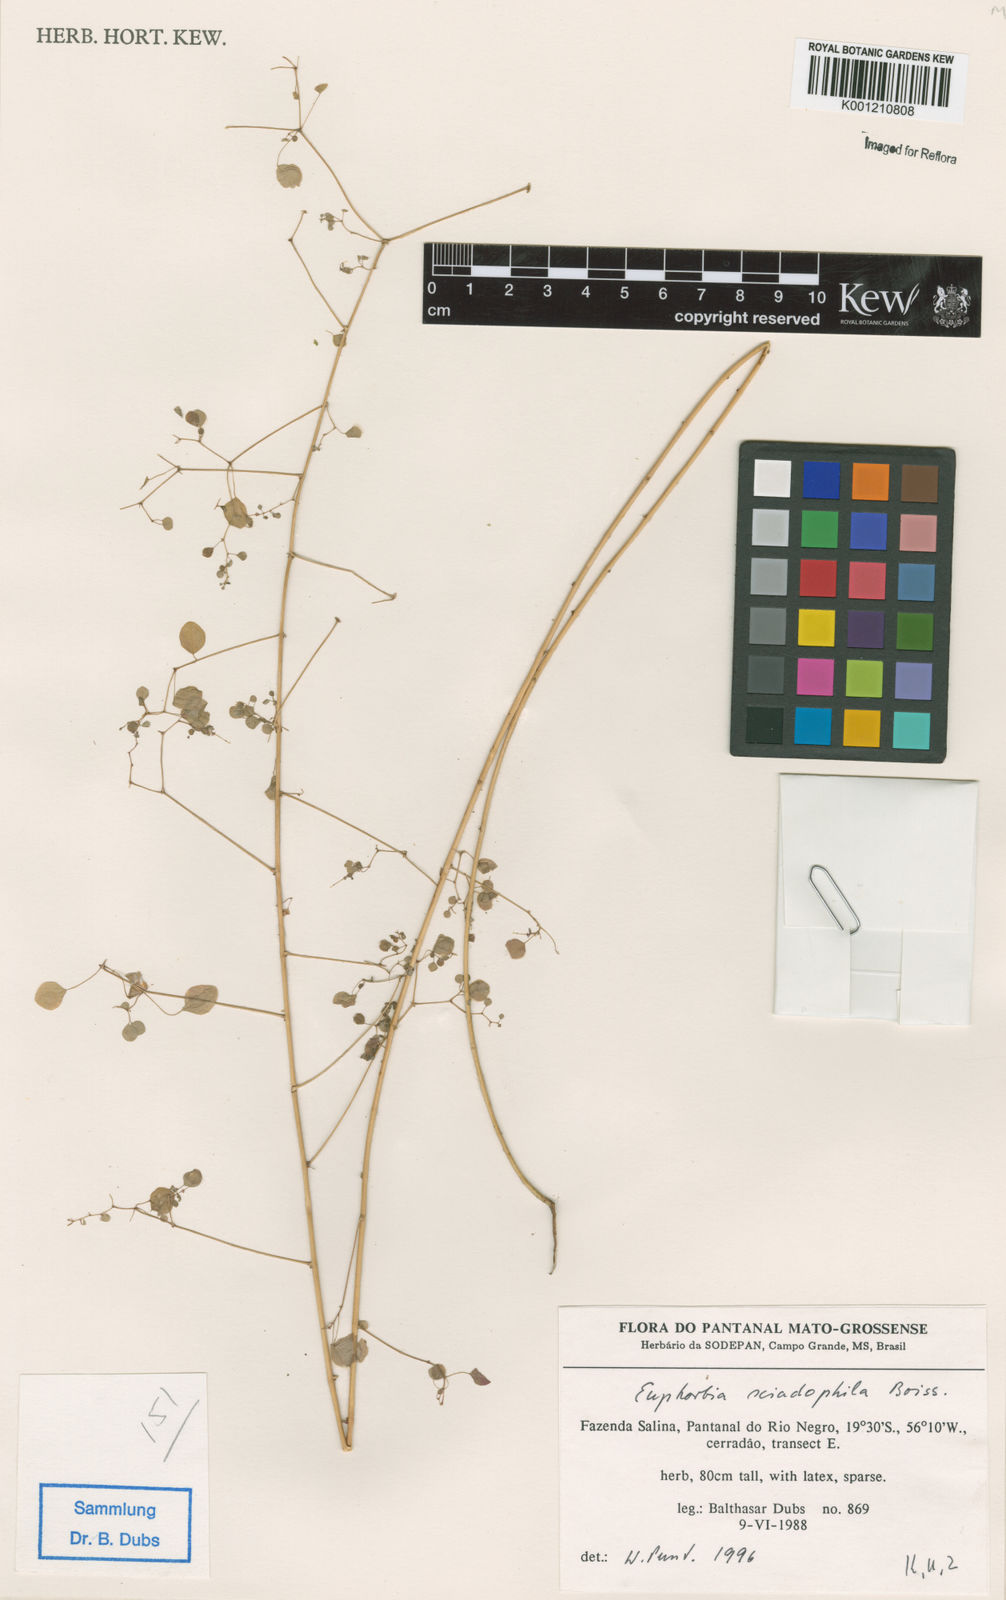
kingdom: Plantae
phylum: Tracheophyta
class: Magnoliopsida
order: Malpighiales
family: Euphorbiaceae
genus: Euphorbia
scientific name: Euphorbia sciadophila
